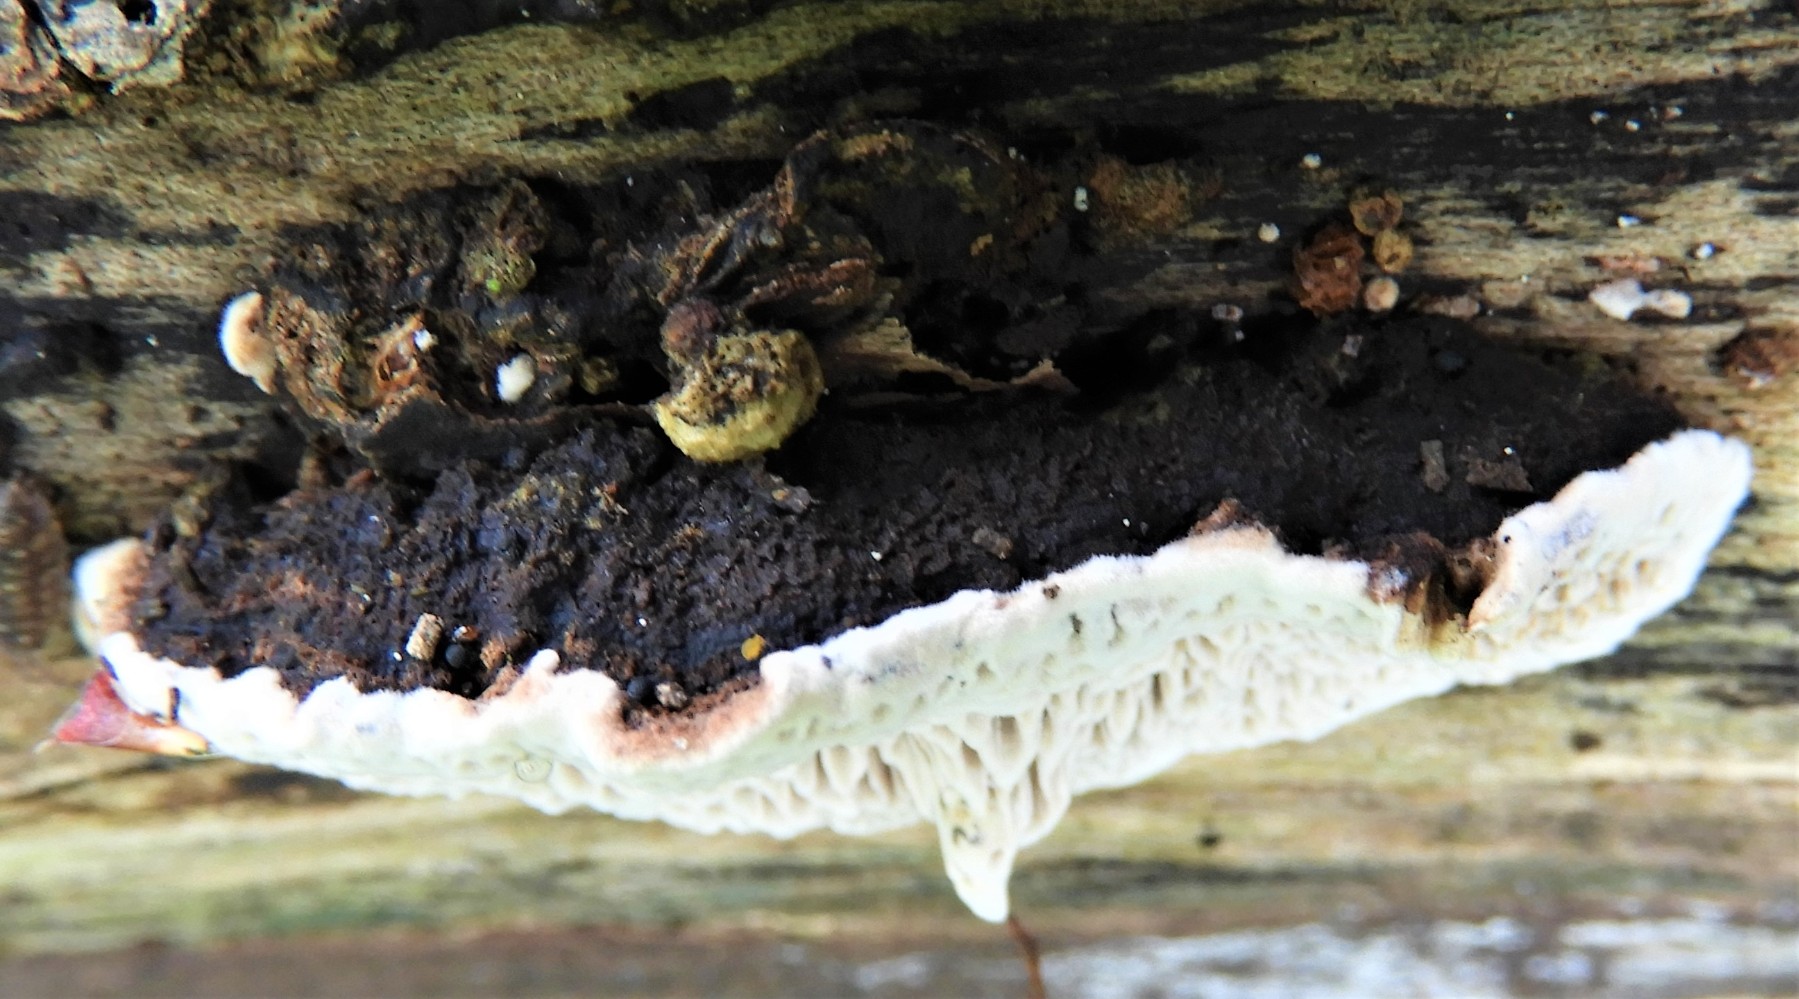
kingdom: Fungi
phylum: Basidiomycota
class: Agaricomycetes
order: Polyporales
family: Polyporaceae
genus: Podofomes
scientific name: Podofomes mollis
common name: blød begporesvamp
